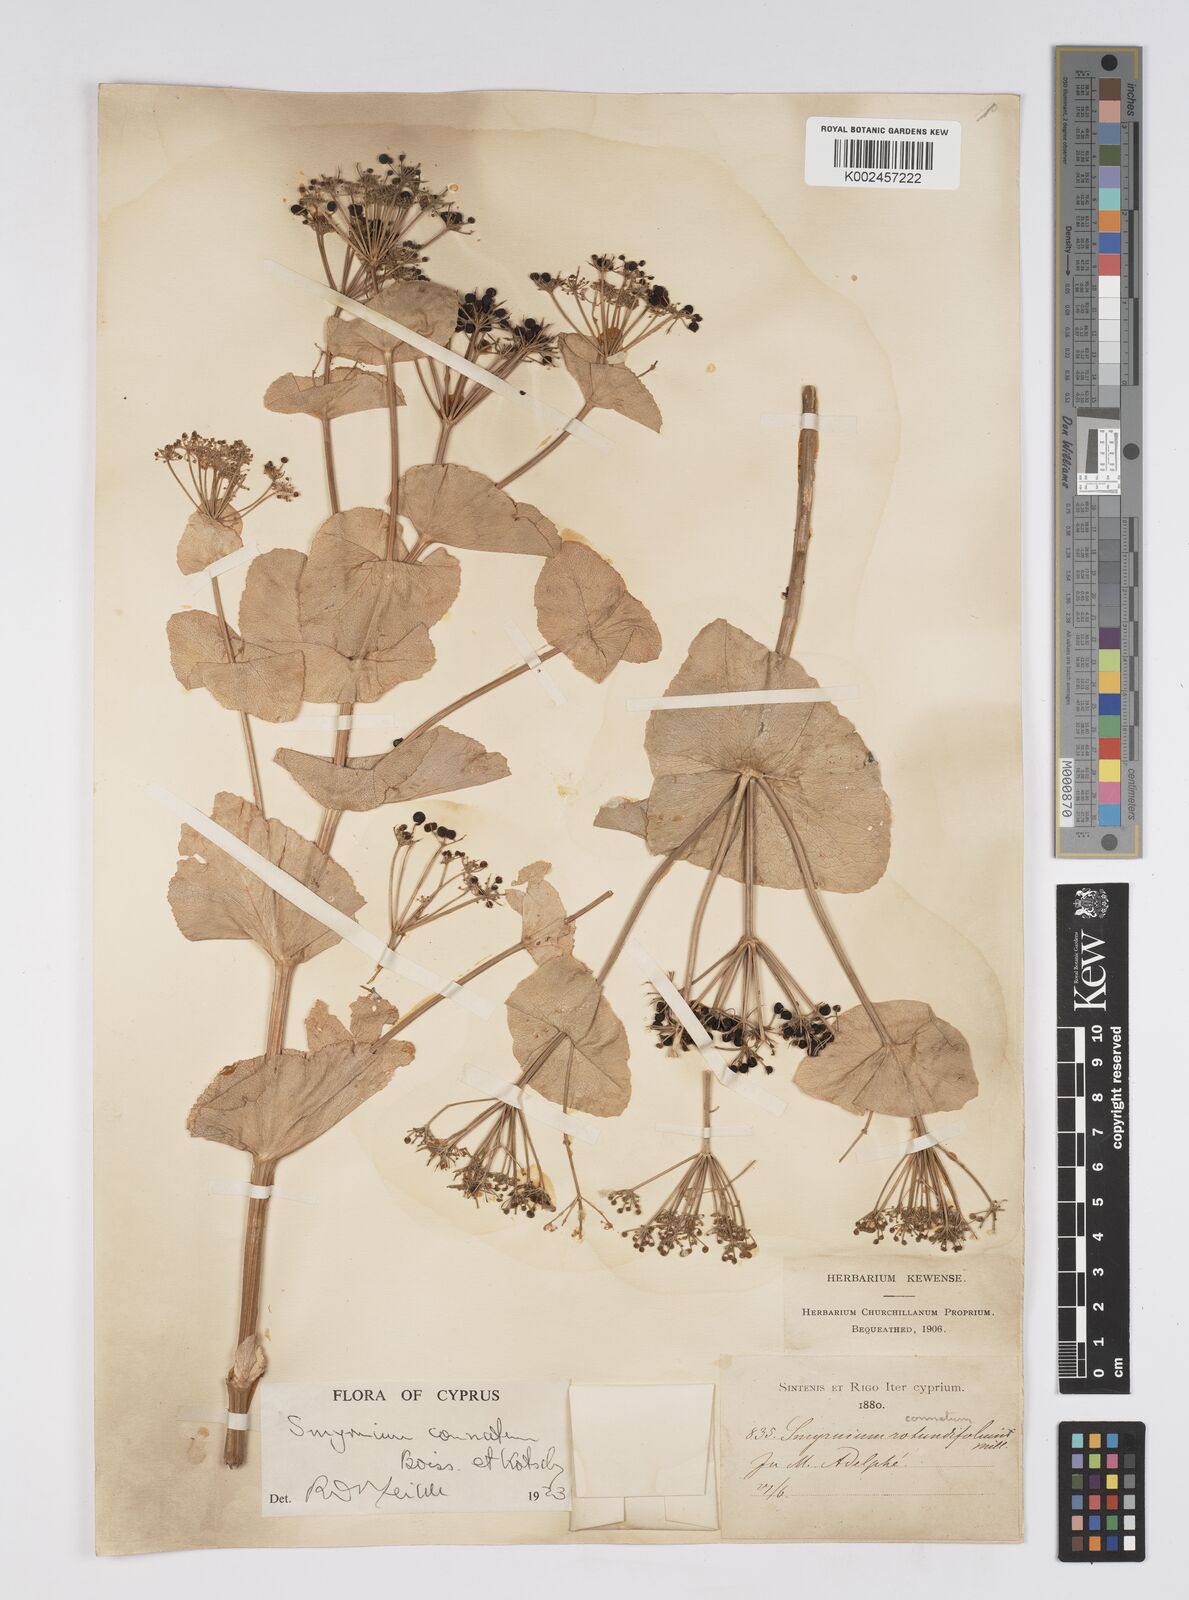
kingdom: Plantae
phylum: Tracheophyta
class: Magnoliopsida
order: Apiales
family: Apiaceae
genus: Smyrnium
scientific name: Smyrnium connatum
